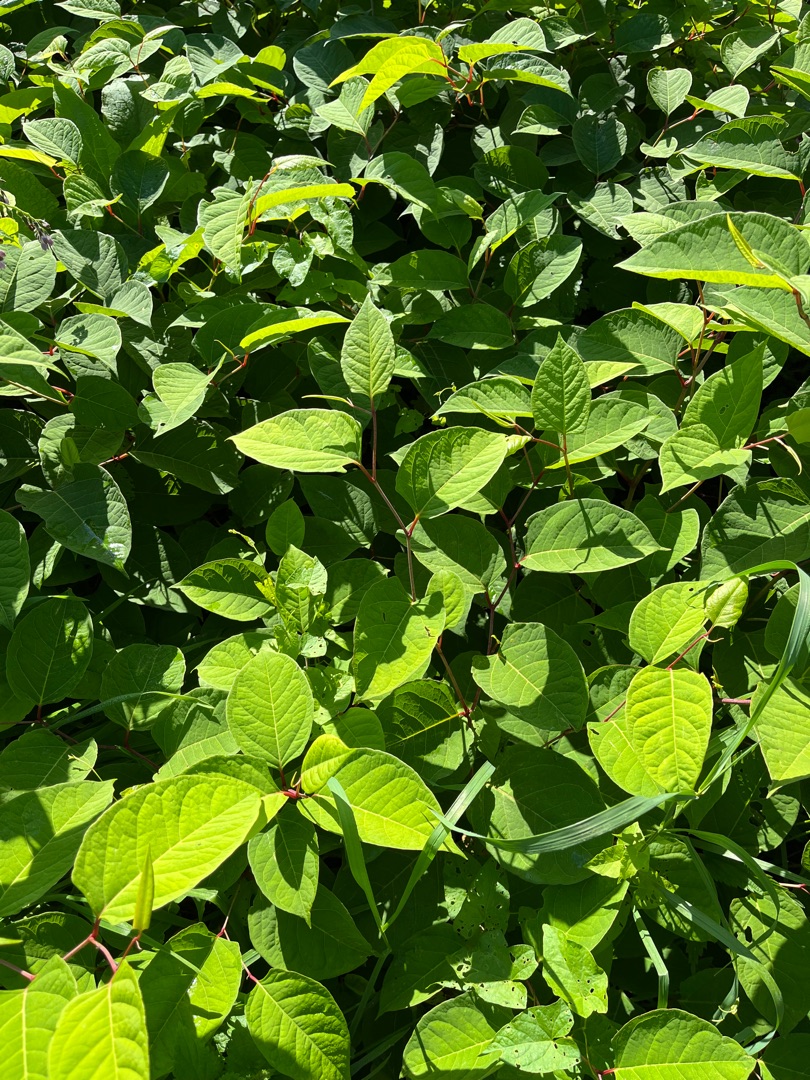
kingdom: Plantae
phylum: Tracheophyta
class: Magnoliopsida
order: Caryophyllales
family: Polygonaceae
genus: Reynoutria
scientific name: Reynoutria japonica
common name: Japan-pileurt
